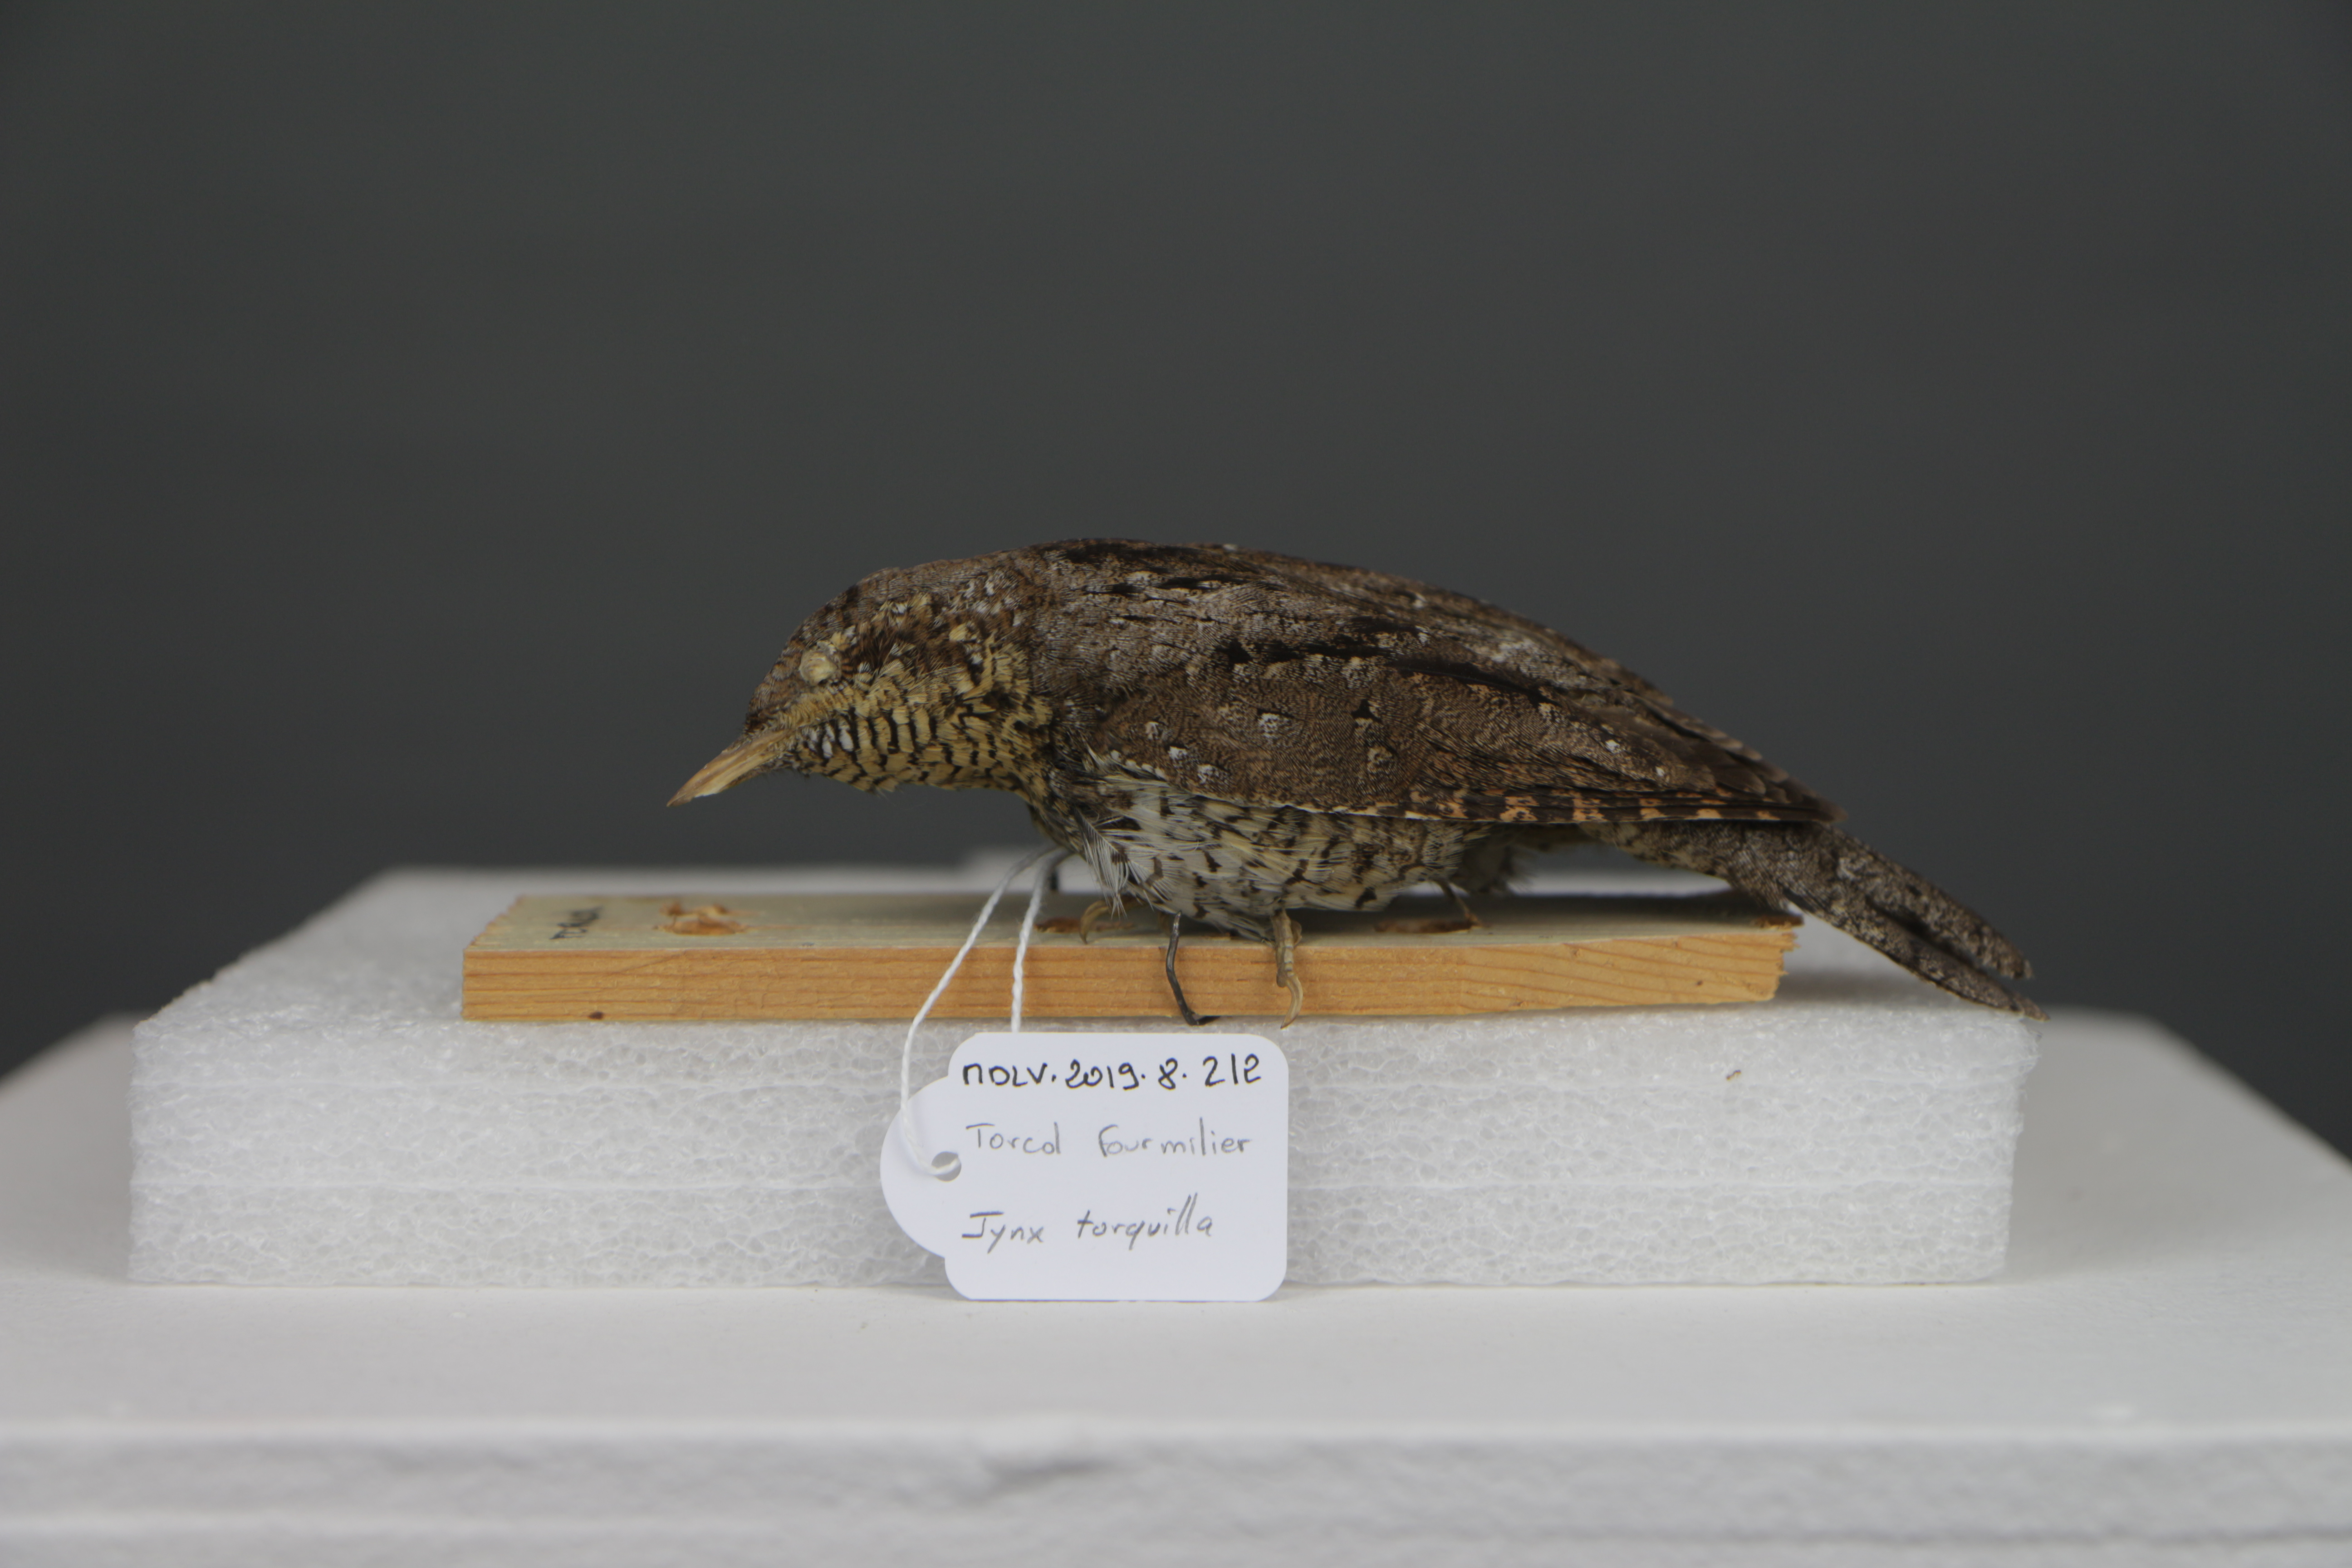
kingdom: Animalia
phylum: Chordata
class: Aves
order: Piciformes
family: Picidae
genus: Jynx
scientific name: Jynx torquilla
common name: Eurasian wryneck
